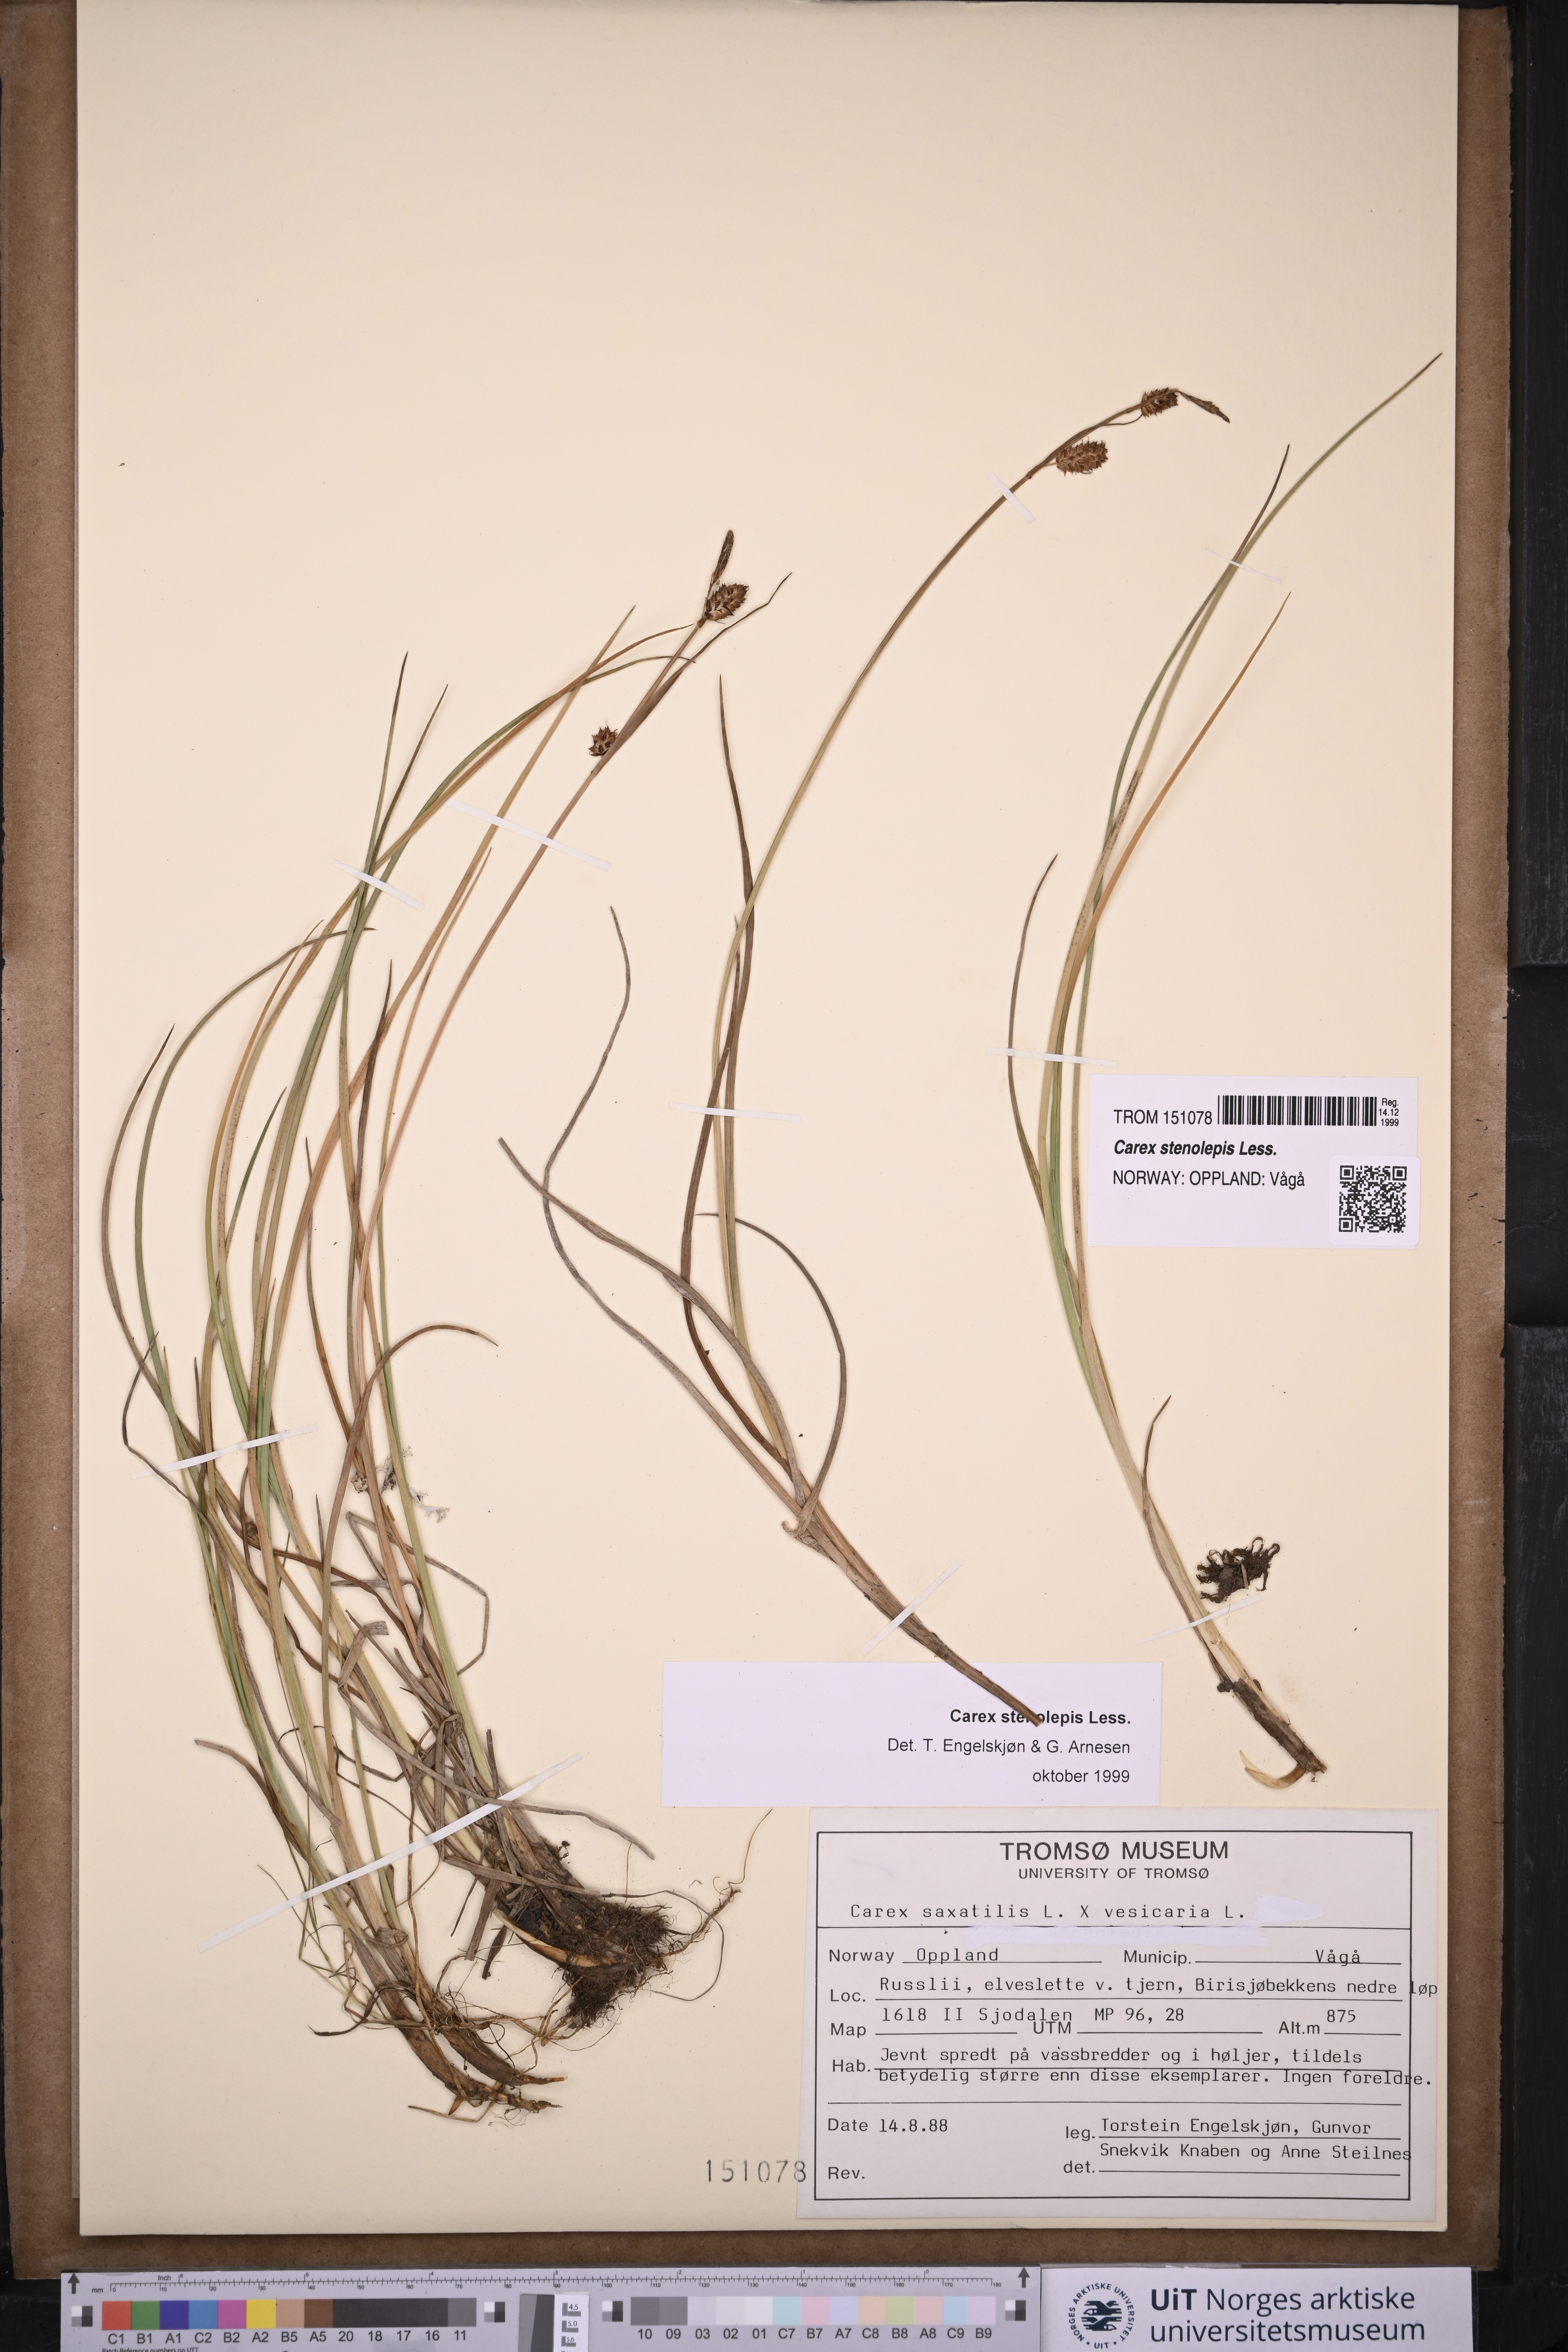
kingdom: Plantae
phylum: Tracheophyta
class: Liliopsida
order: Poales
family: Cyperaceae
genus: Carex
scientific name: Carex grahamii
